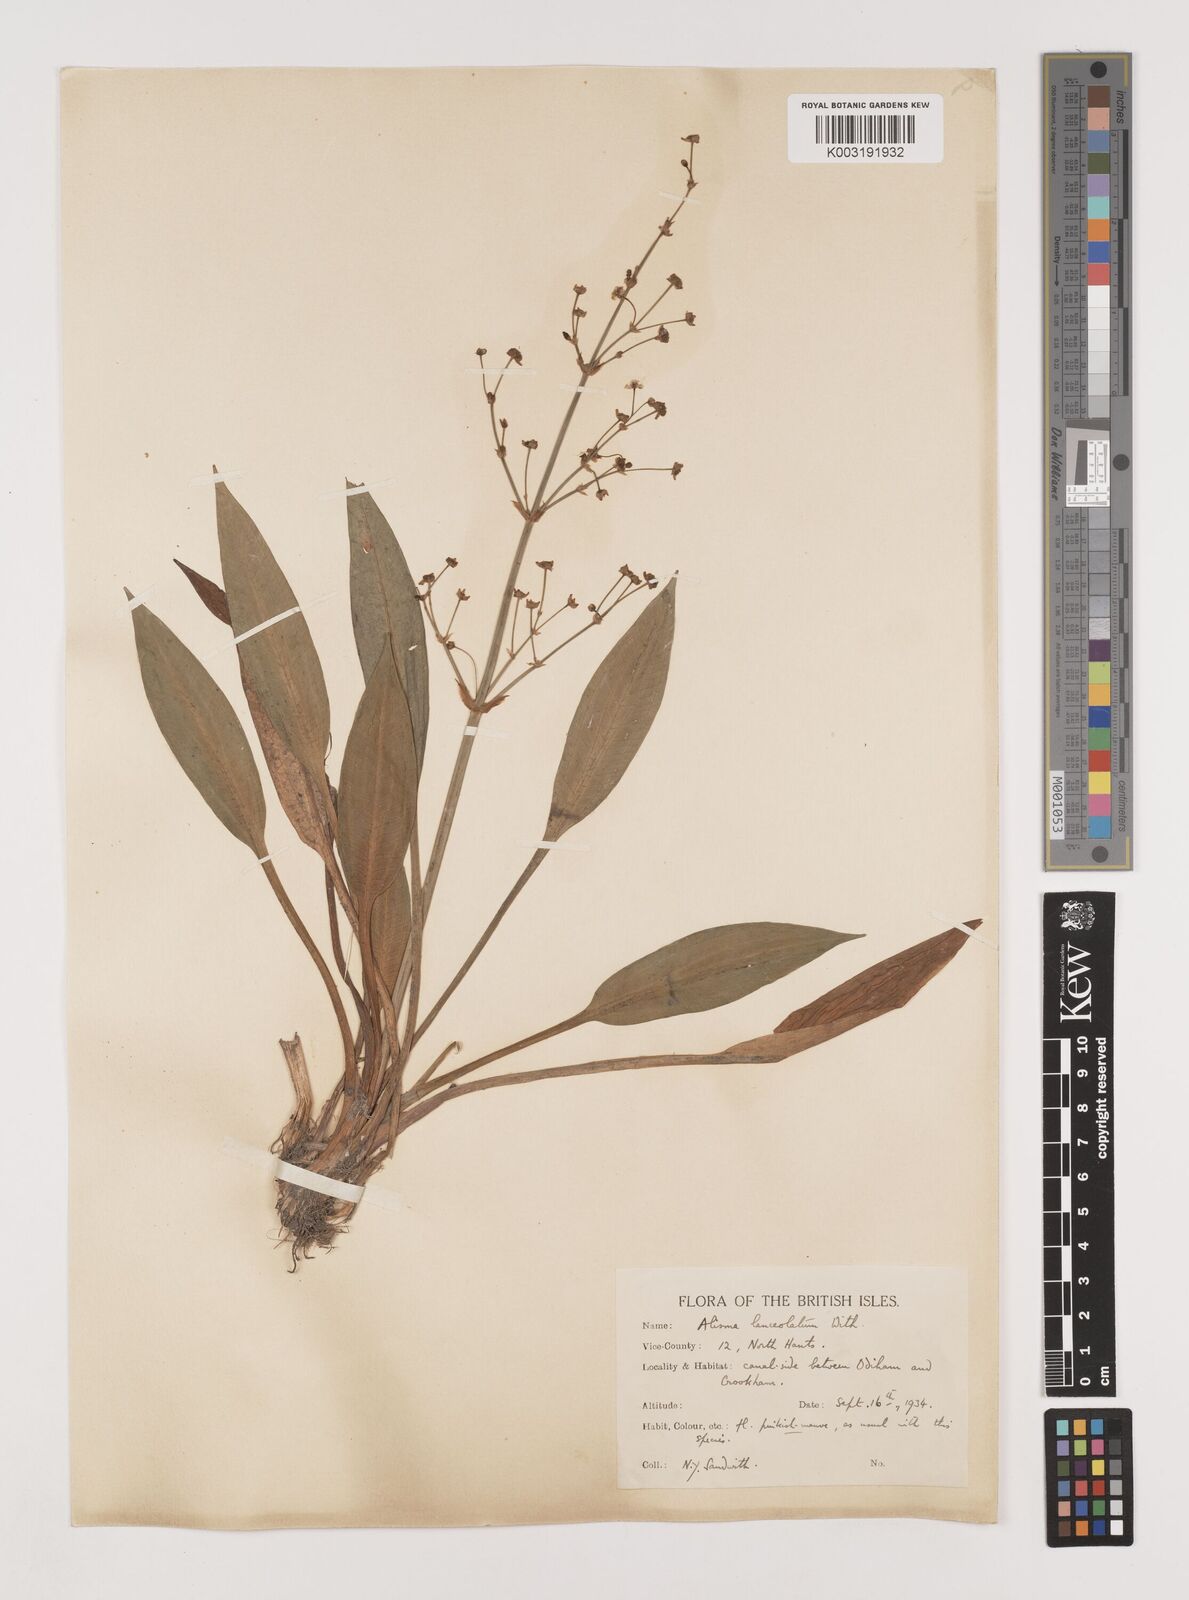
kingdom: Plantae
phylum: Tracheophyta
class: Liliopsida
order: Alismatales
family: Alismataceae
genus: Alisma
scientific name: Alisma lanceolatum
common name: Narrow-leaved water-plantain
